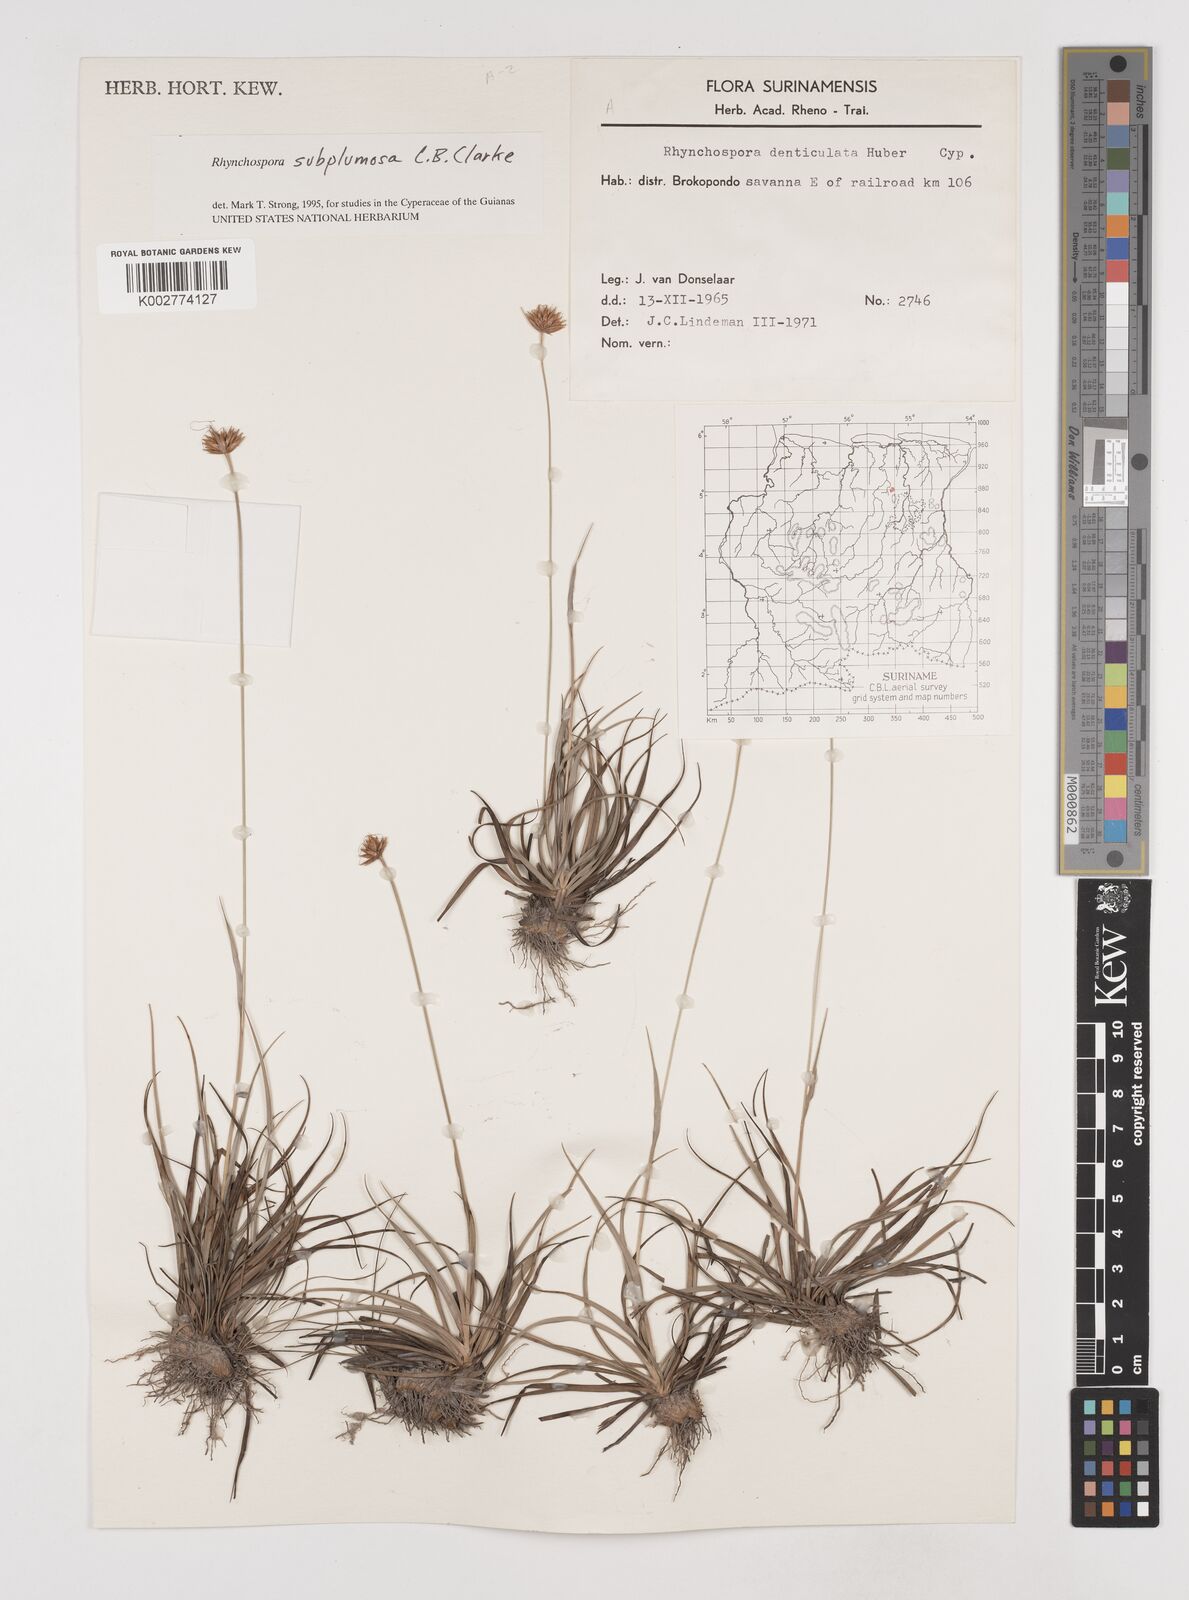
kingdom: Plantae
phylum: Tracheophyta
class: Liliopsida
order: Poales
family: Cyperaceae
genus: Rhynchospora
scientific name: Rhynchospora subplumosa
